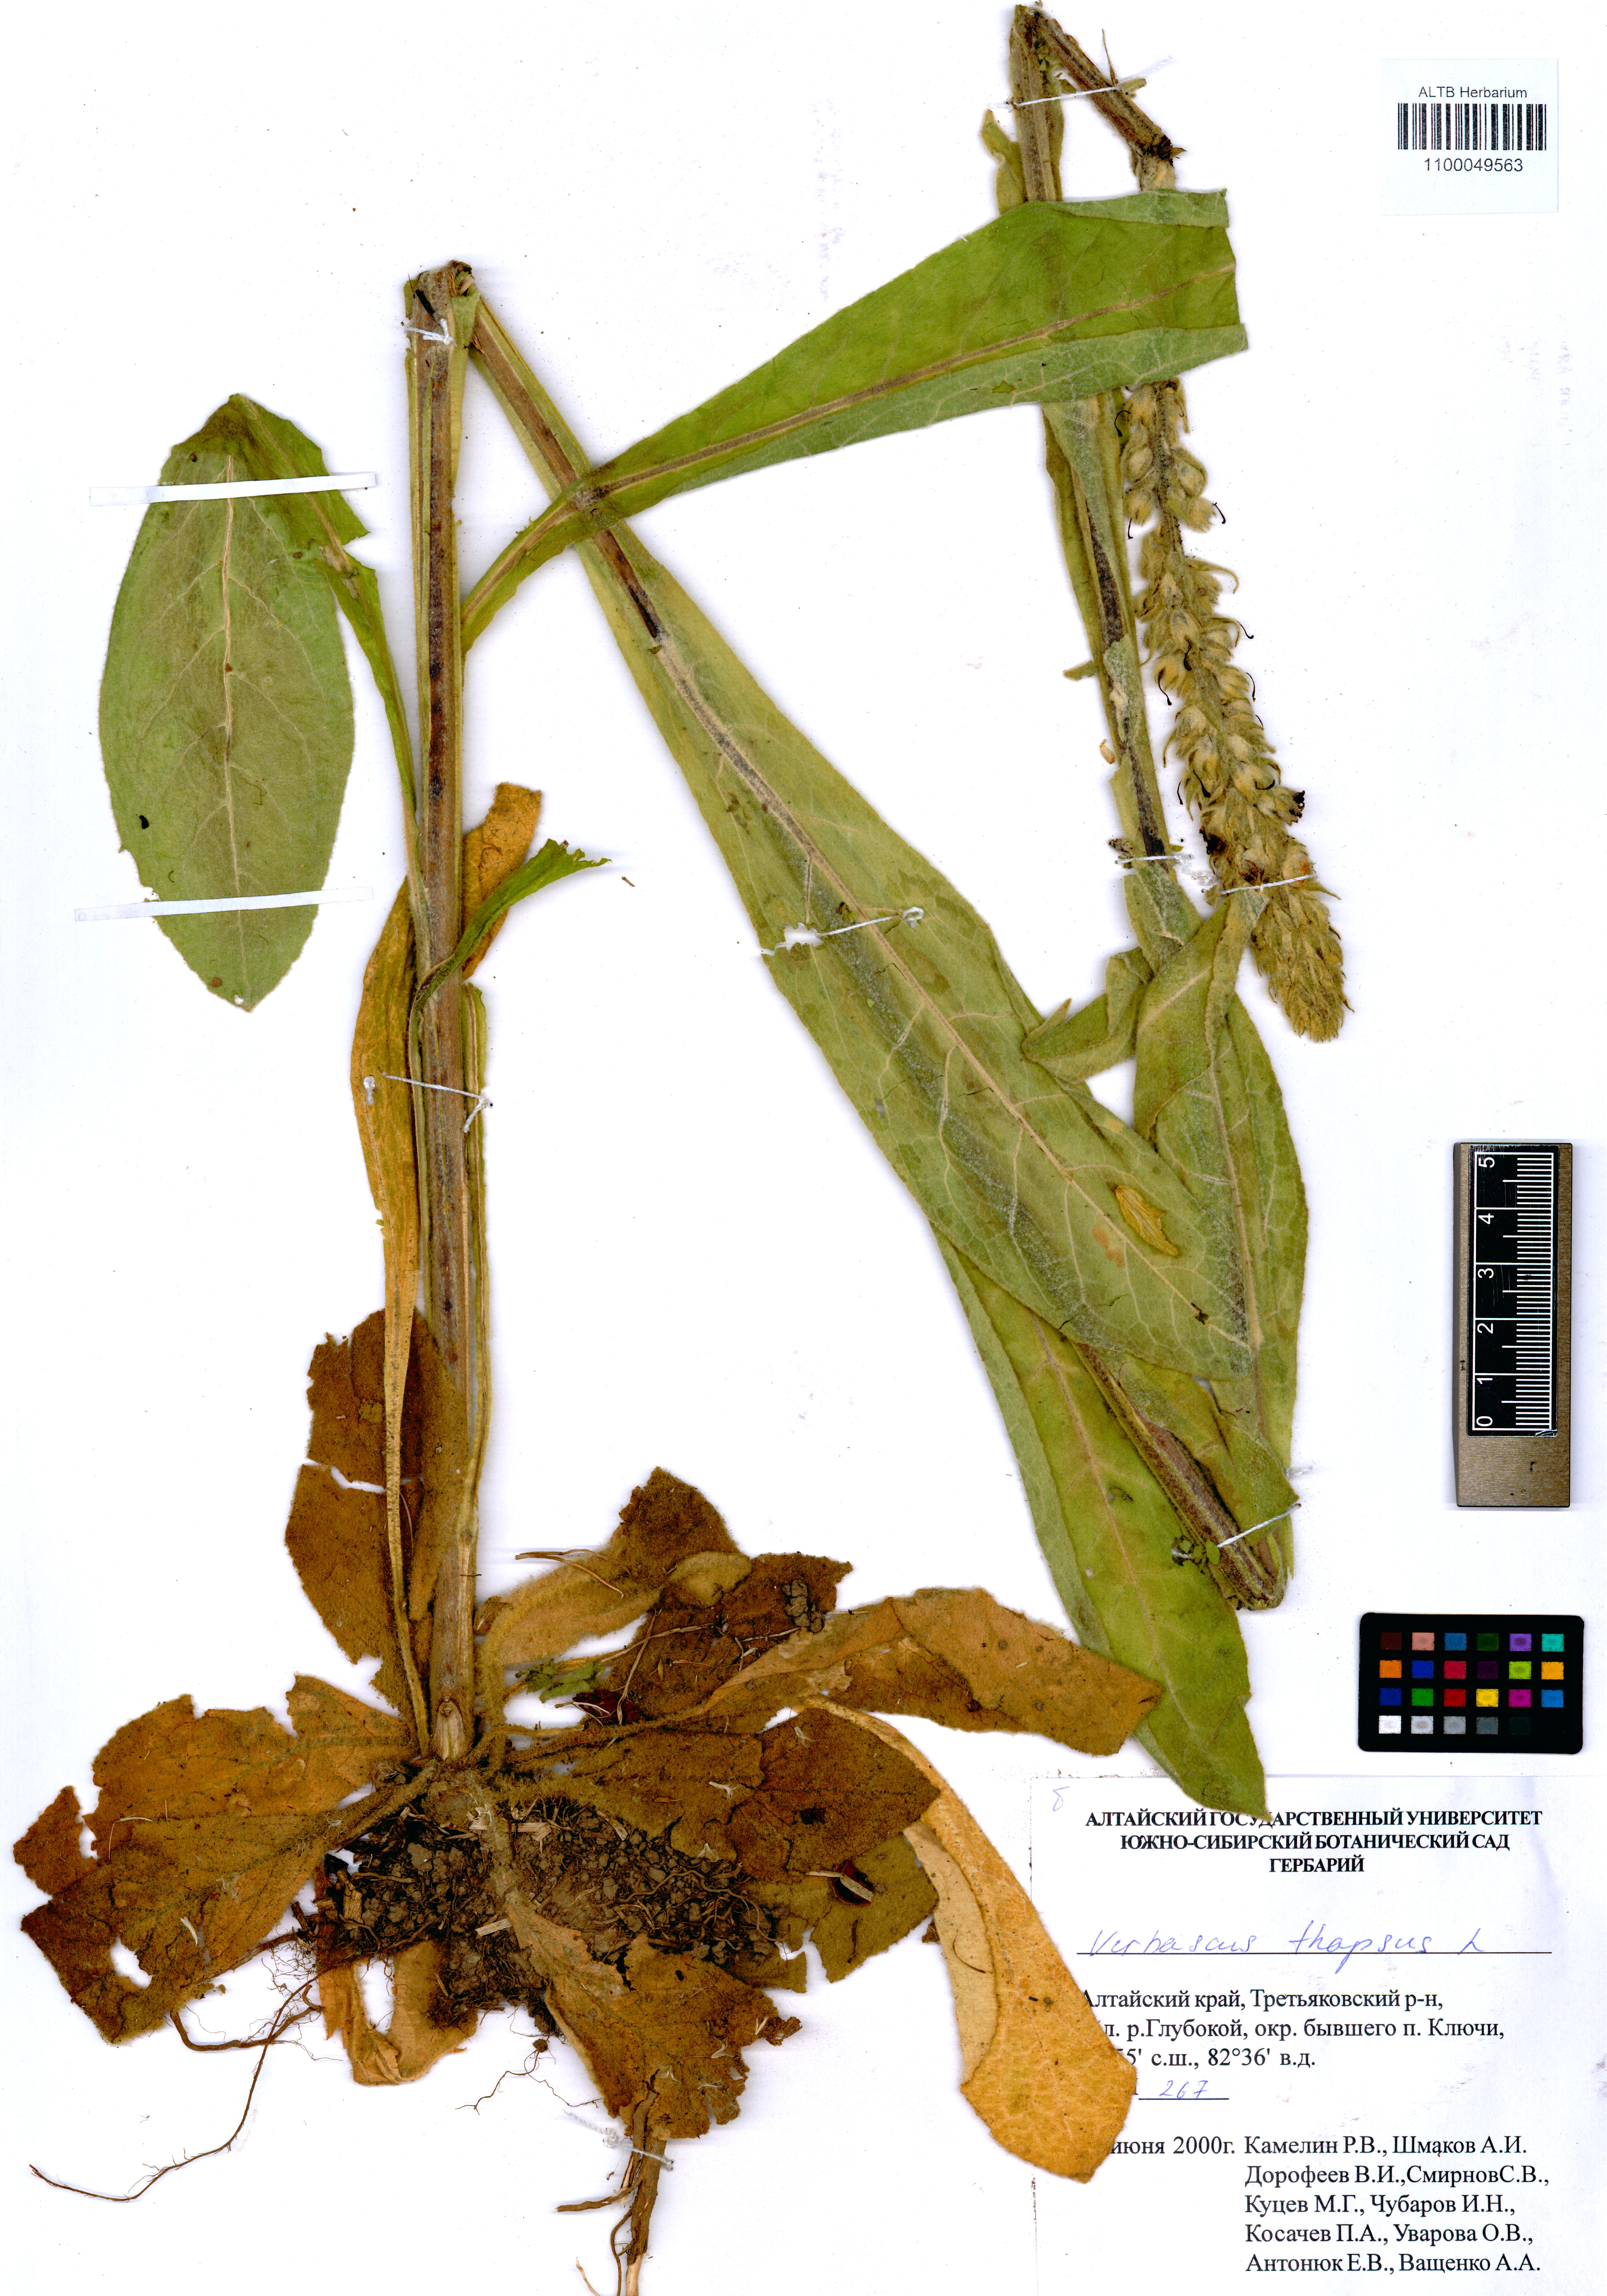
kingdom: Plantae
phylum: Tracheophyta
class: Magnoliopsida
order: Lamiales
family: Scrophulariaceae
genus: Verbascum
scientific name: Verbascum thapsus
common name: Common mullein
